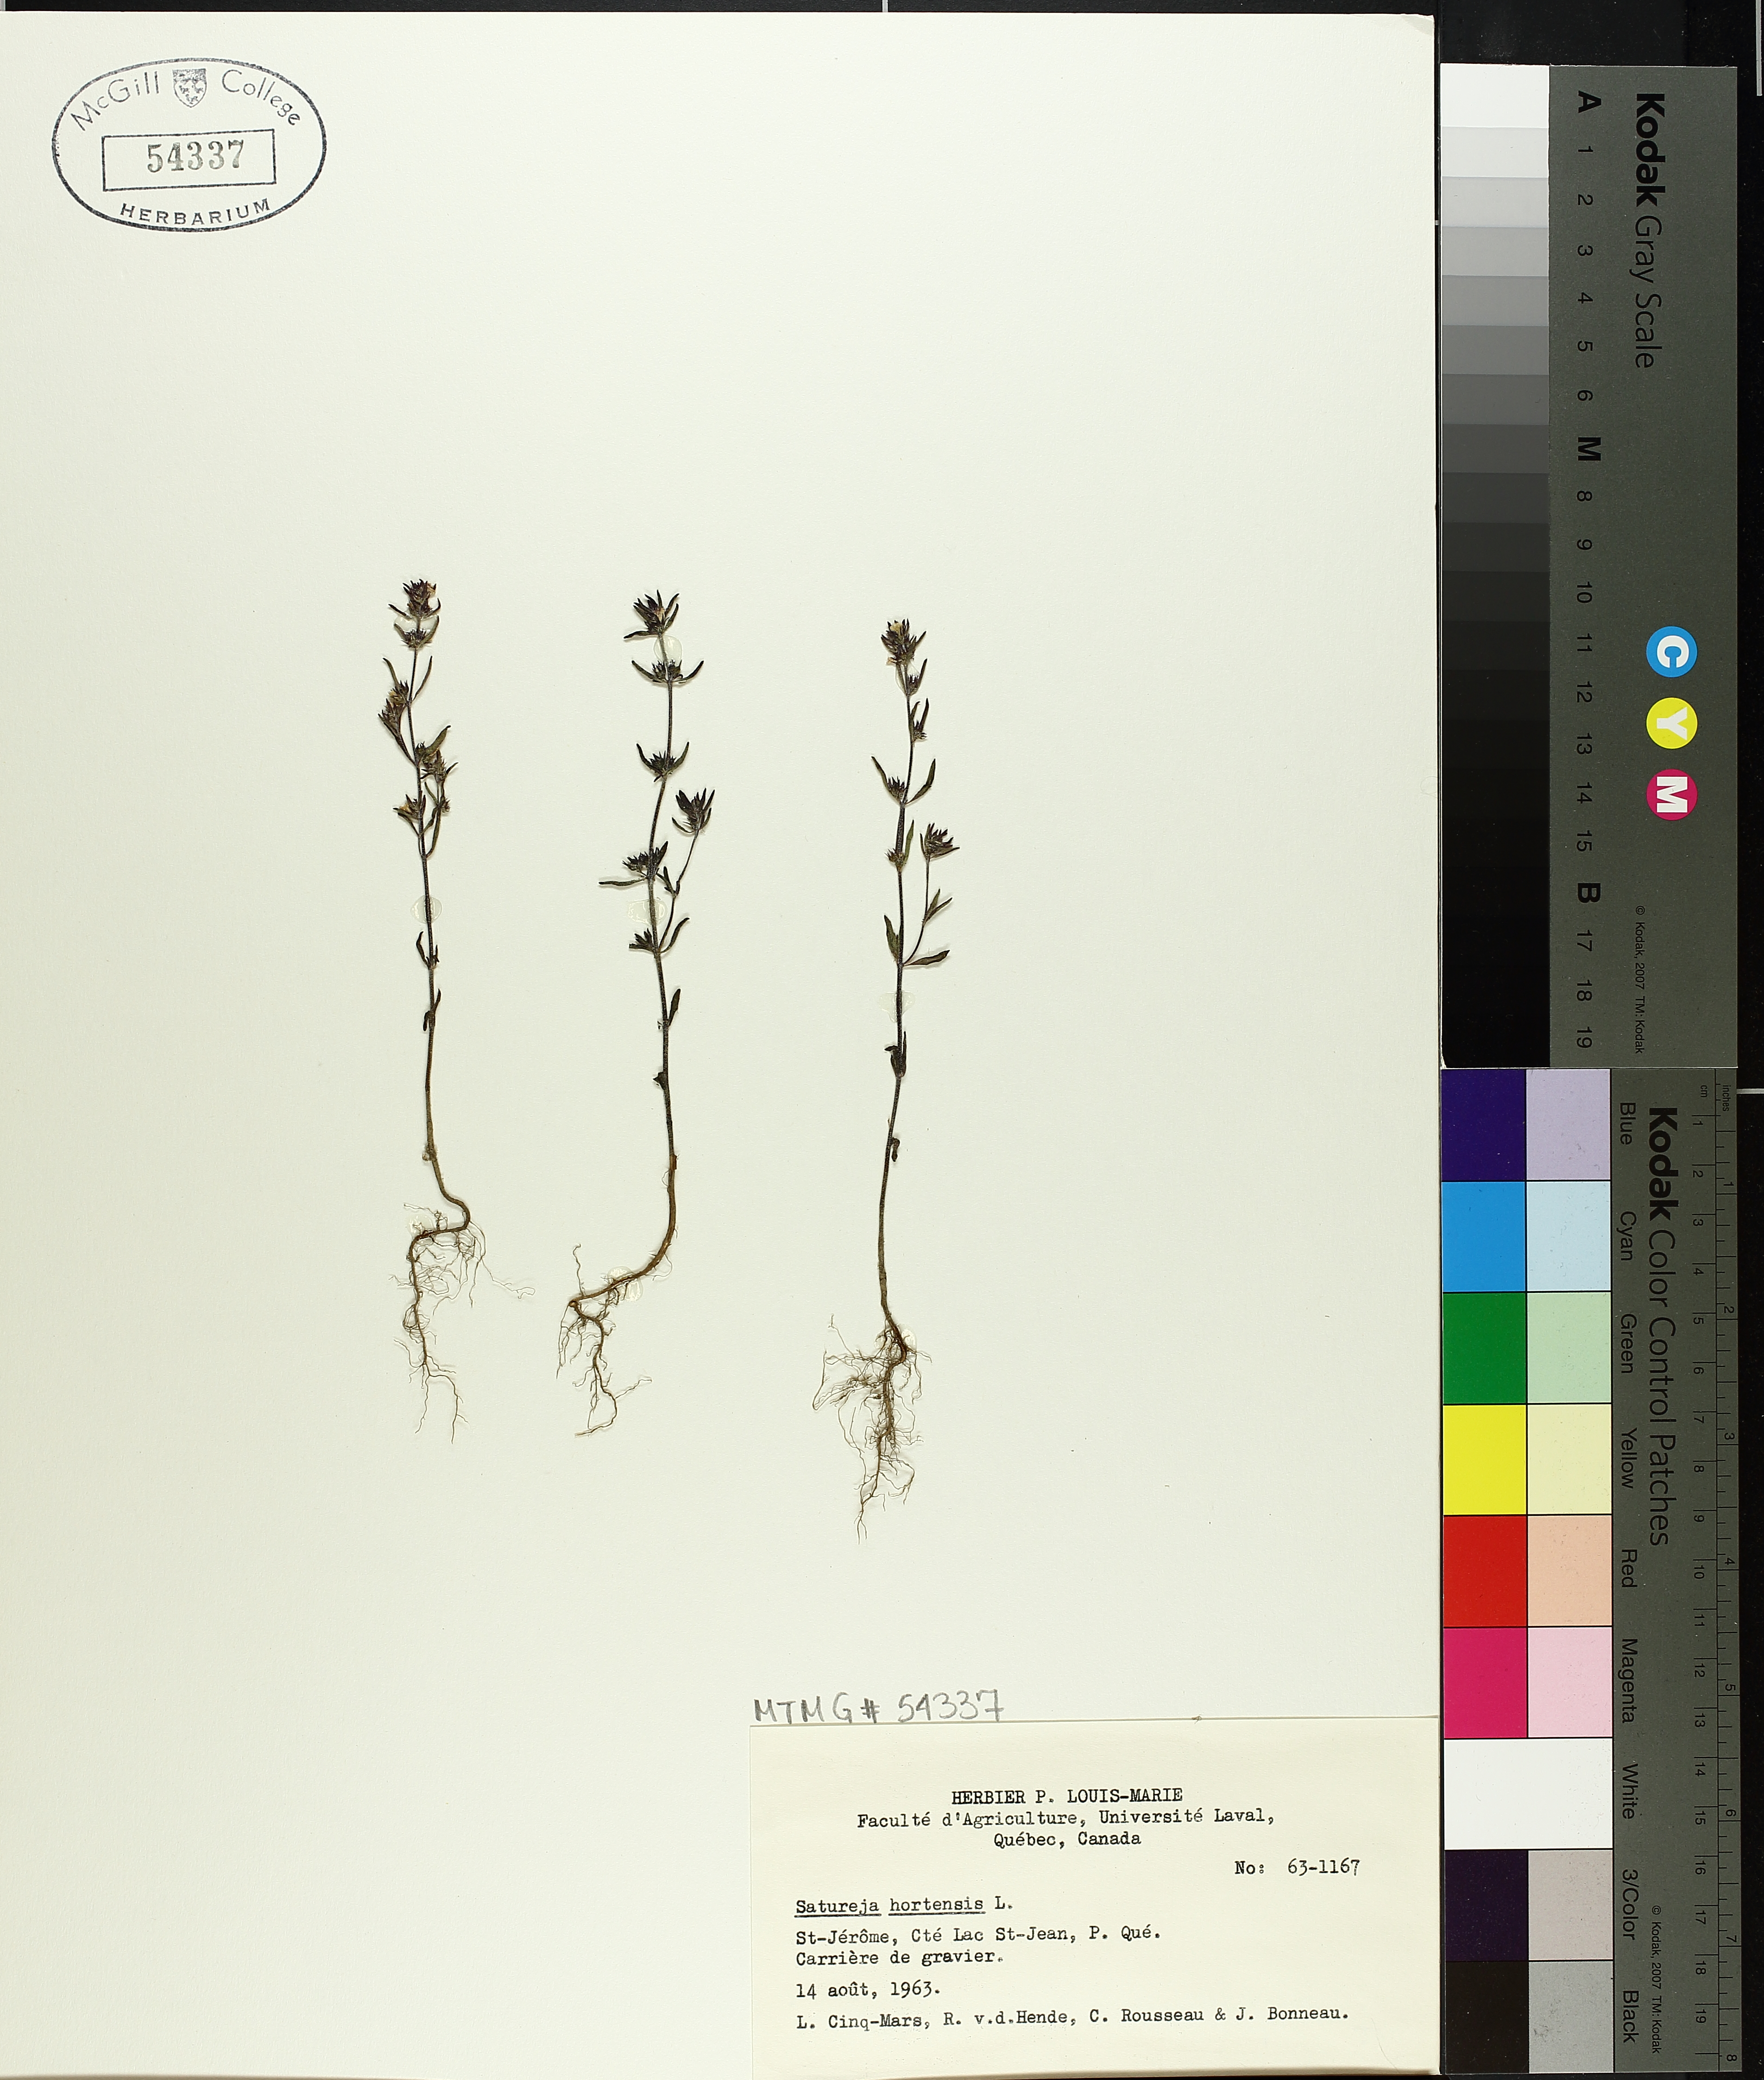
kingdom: Plantae
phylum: Tracheophyta
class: Magnoliopsida
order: Lamiales
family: Lamiaceae
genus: Satureja
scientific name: Satureja hortensis
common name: Summer savory
